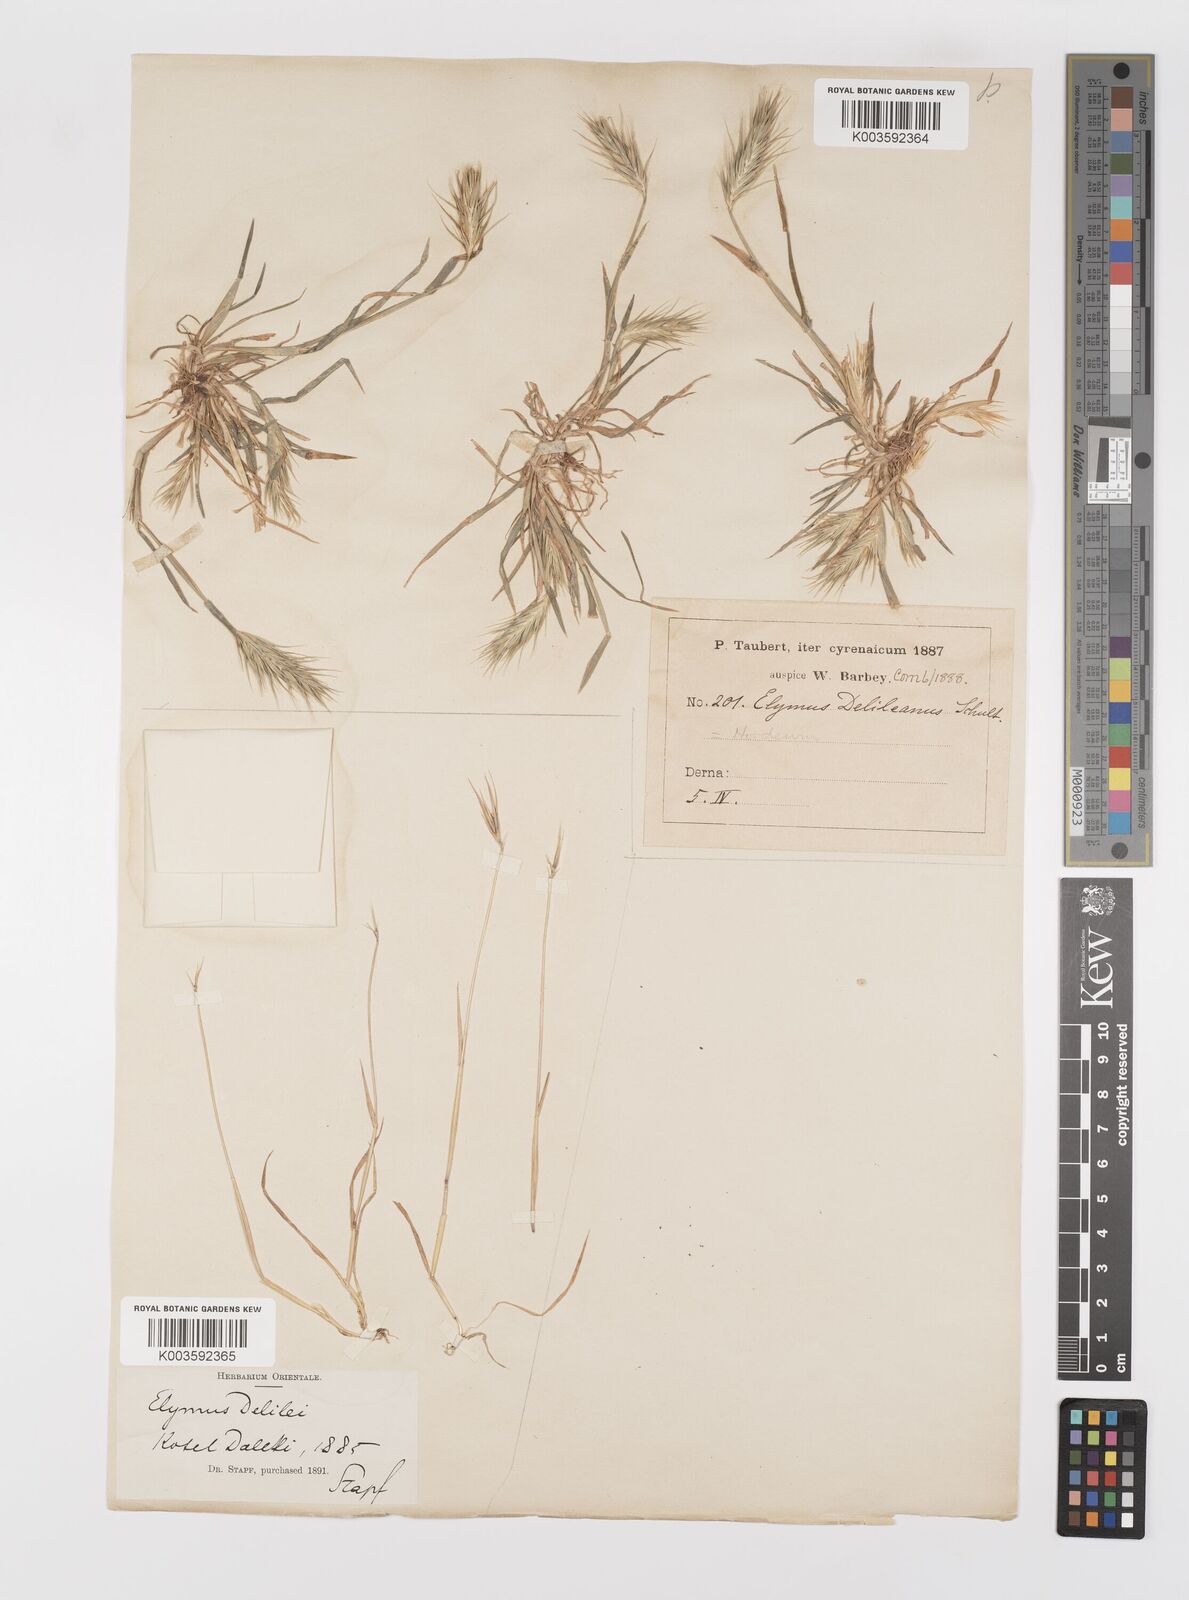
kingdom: Plantae
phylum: Tracheophyta
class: Liliopsida
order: Poales
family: Poaceae
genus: Crithopsis
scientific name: Crithopsis delileana
